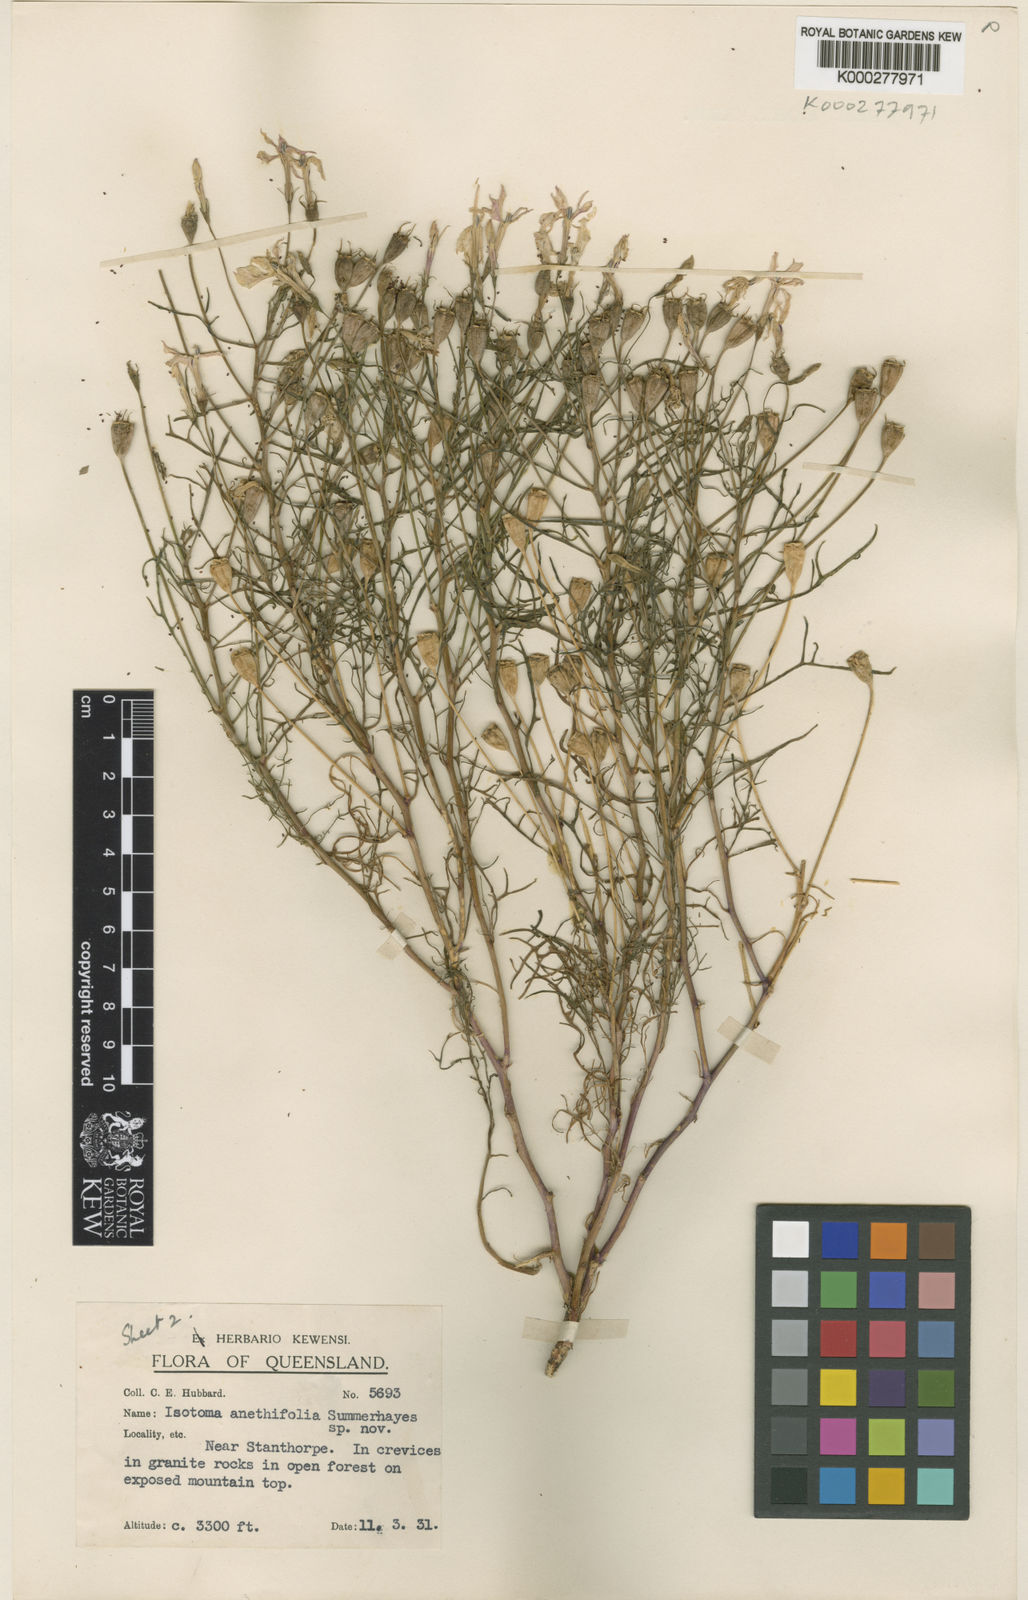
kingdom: Plantae
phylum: Tracheophyta
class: Magnoliopsida
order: Asterales
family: Campanulaceae
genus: Lithotoma
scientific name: Lithotoma anethifolia
